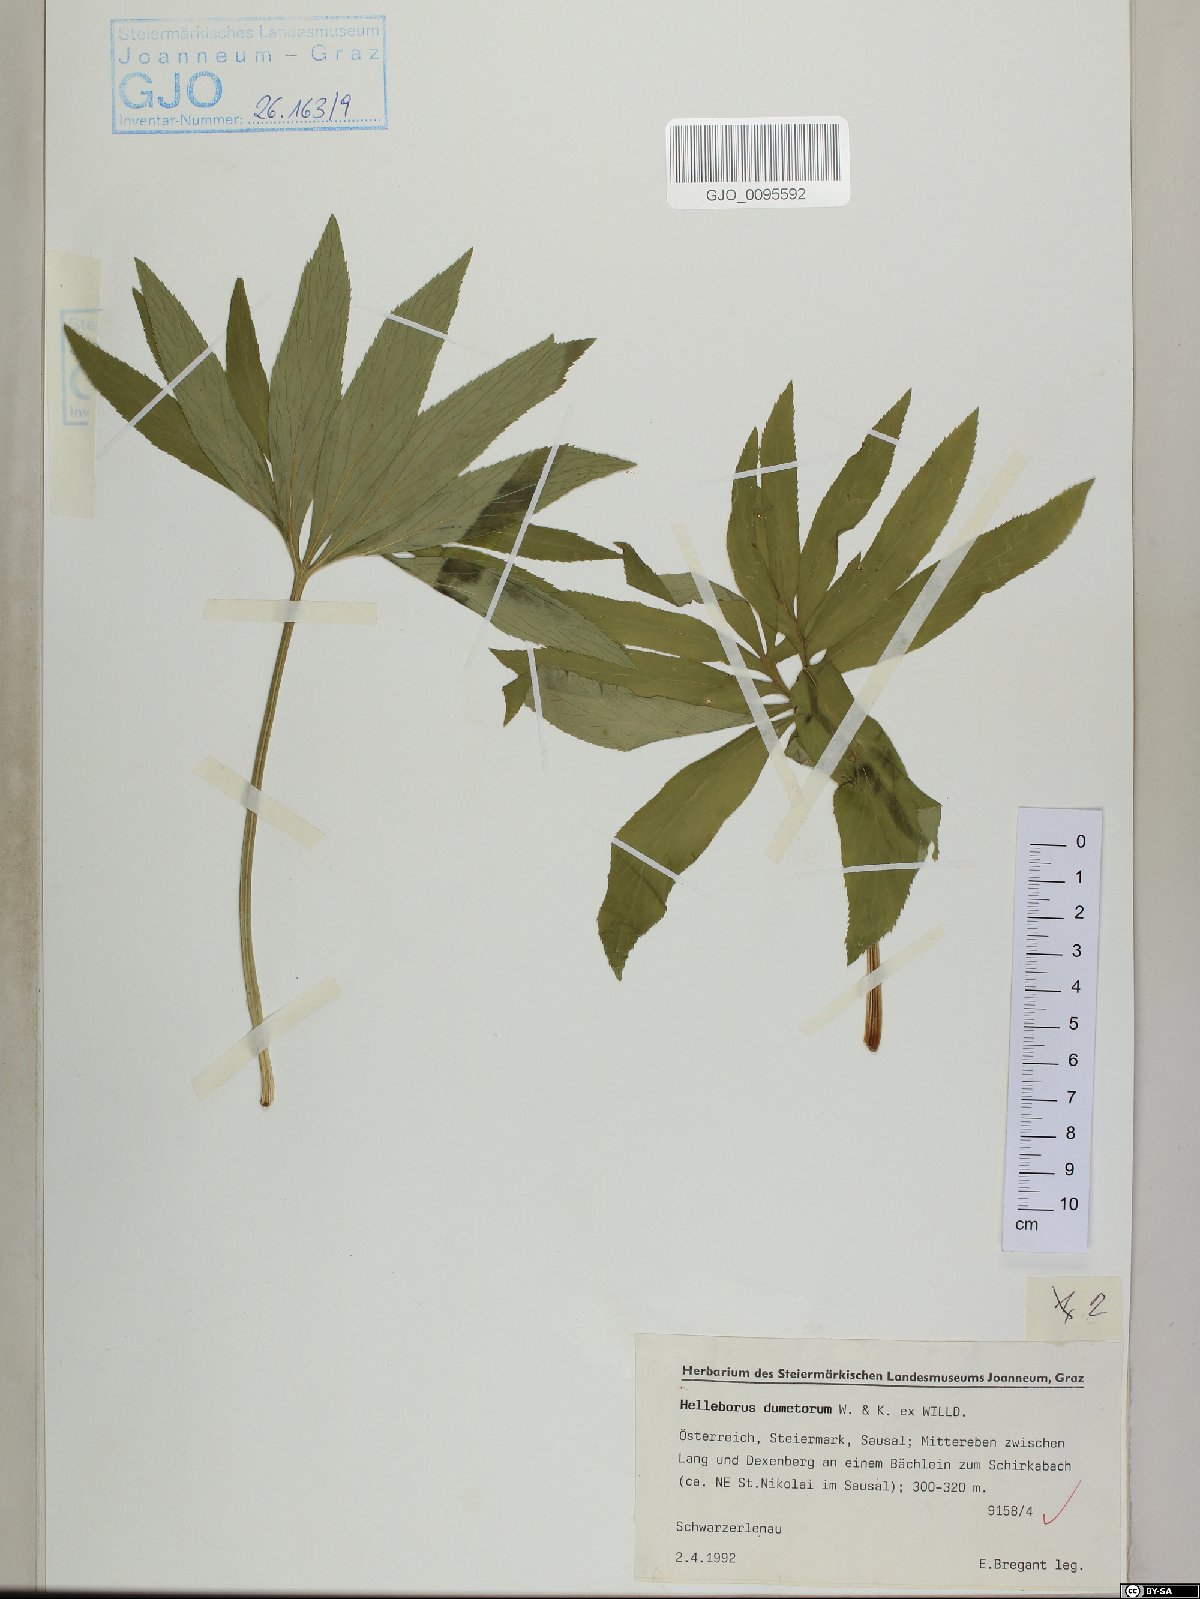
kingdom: Plantae
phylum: Tracheophyta
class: Magnoliopsida
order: Ranunculales
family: Ranunculaceae
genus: Helleborus
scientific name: Helleborus dumetorum
